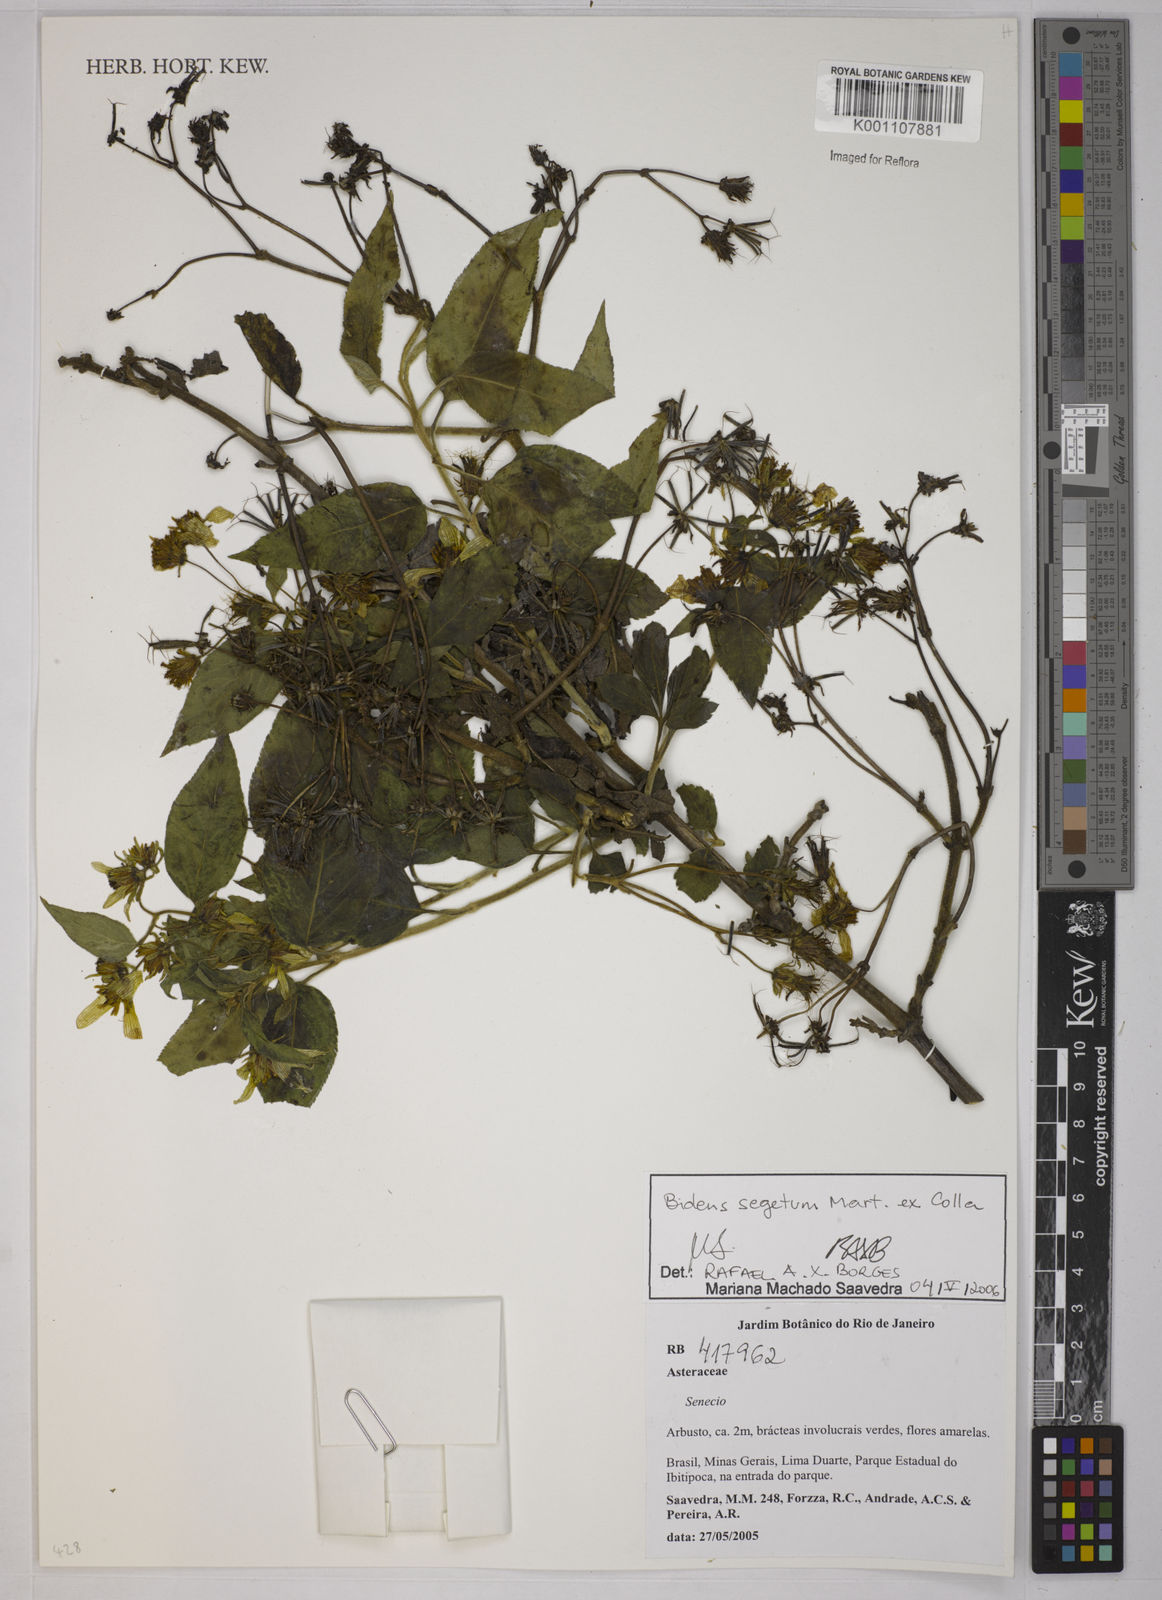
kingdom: Plantae
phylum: Tracheophyta
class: Magnoliopsida
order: Asterales
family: Asteraceae
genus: Bidens
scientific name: Bidens segetum
